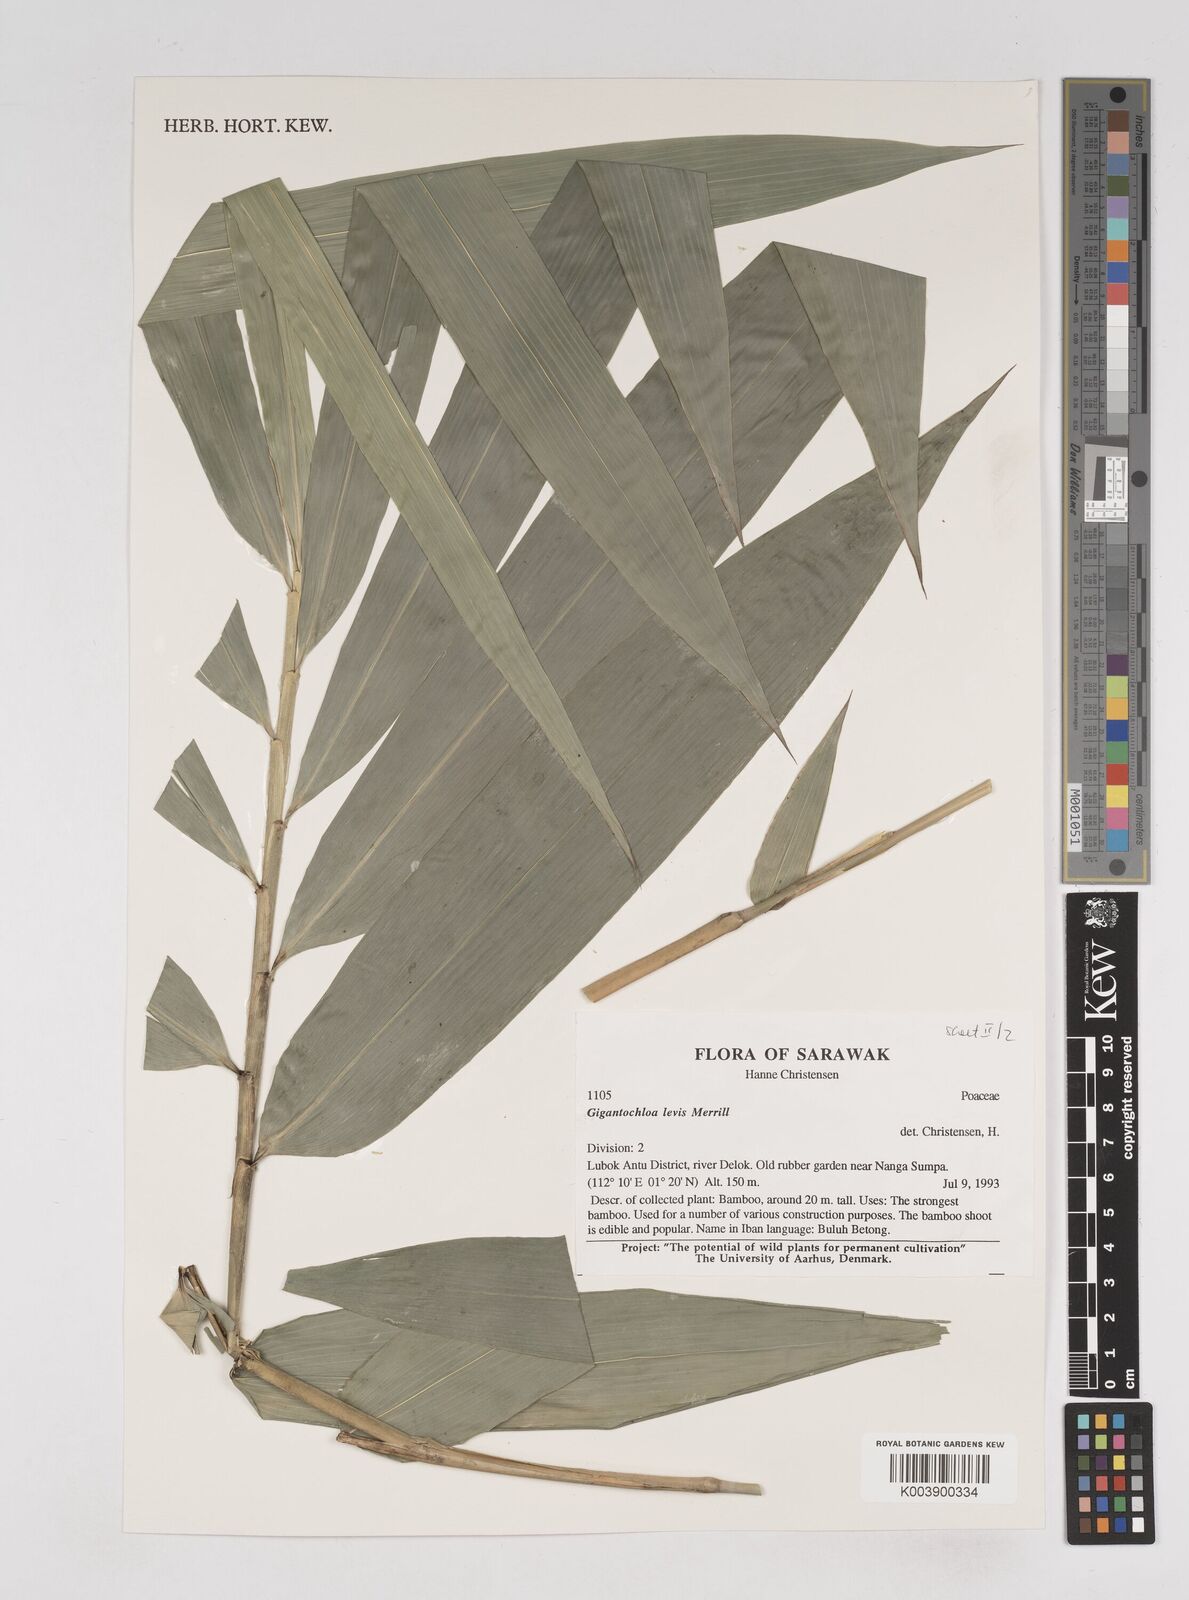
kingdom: Plantae
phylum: Tracheophyta
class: Liliopsida
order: Poales
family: Poaceae
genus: Gigantochloa
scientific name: Gigantochloa levis
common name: Smooth-shoot gigantochloa
